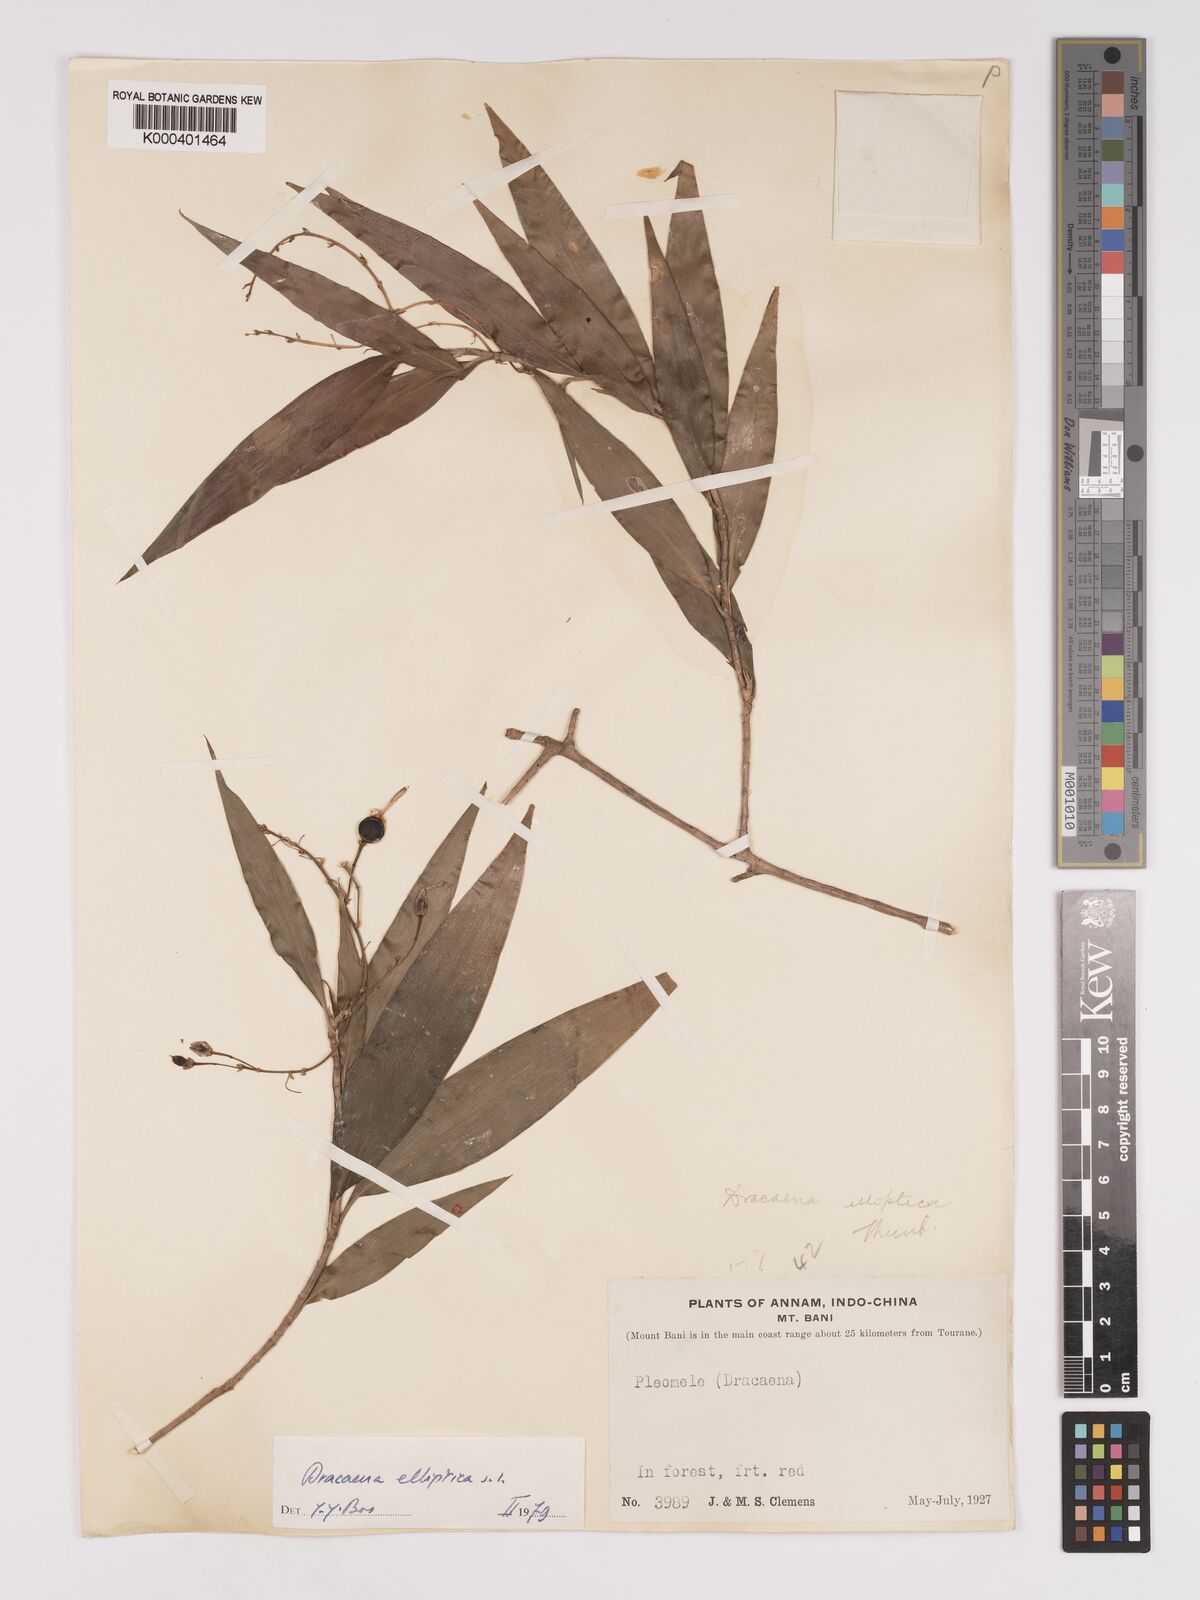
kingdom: Plantae
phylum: Tracheophyta
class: Liliopsida
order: Asparagales
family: Asparagaceae
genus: Dracaena
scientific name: Dracaena elliptica
